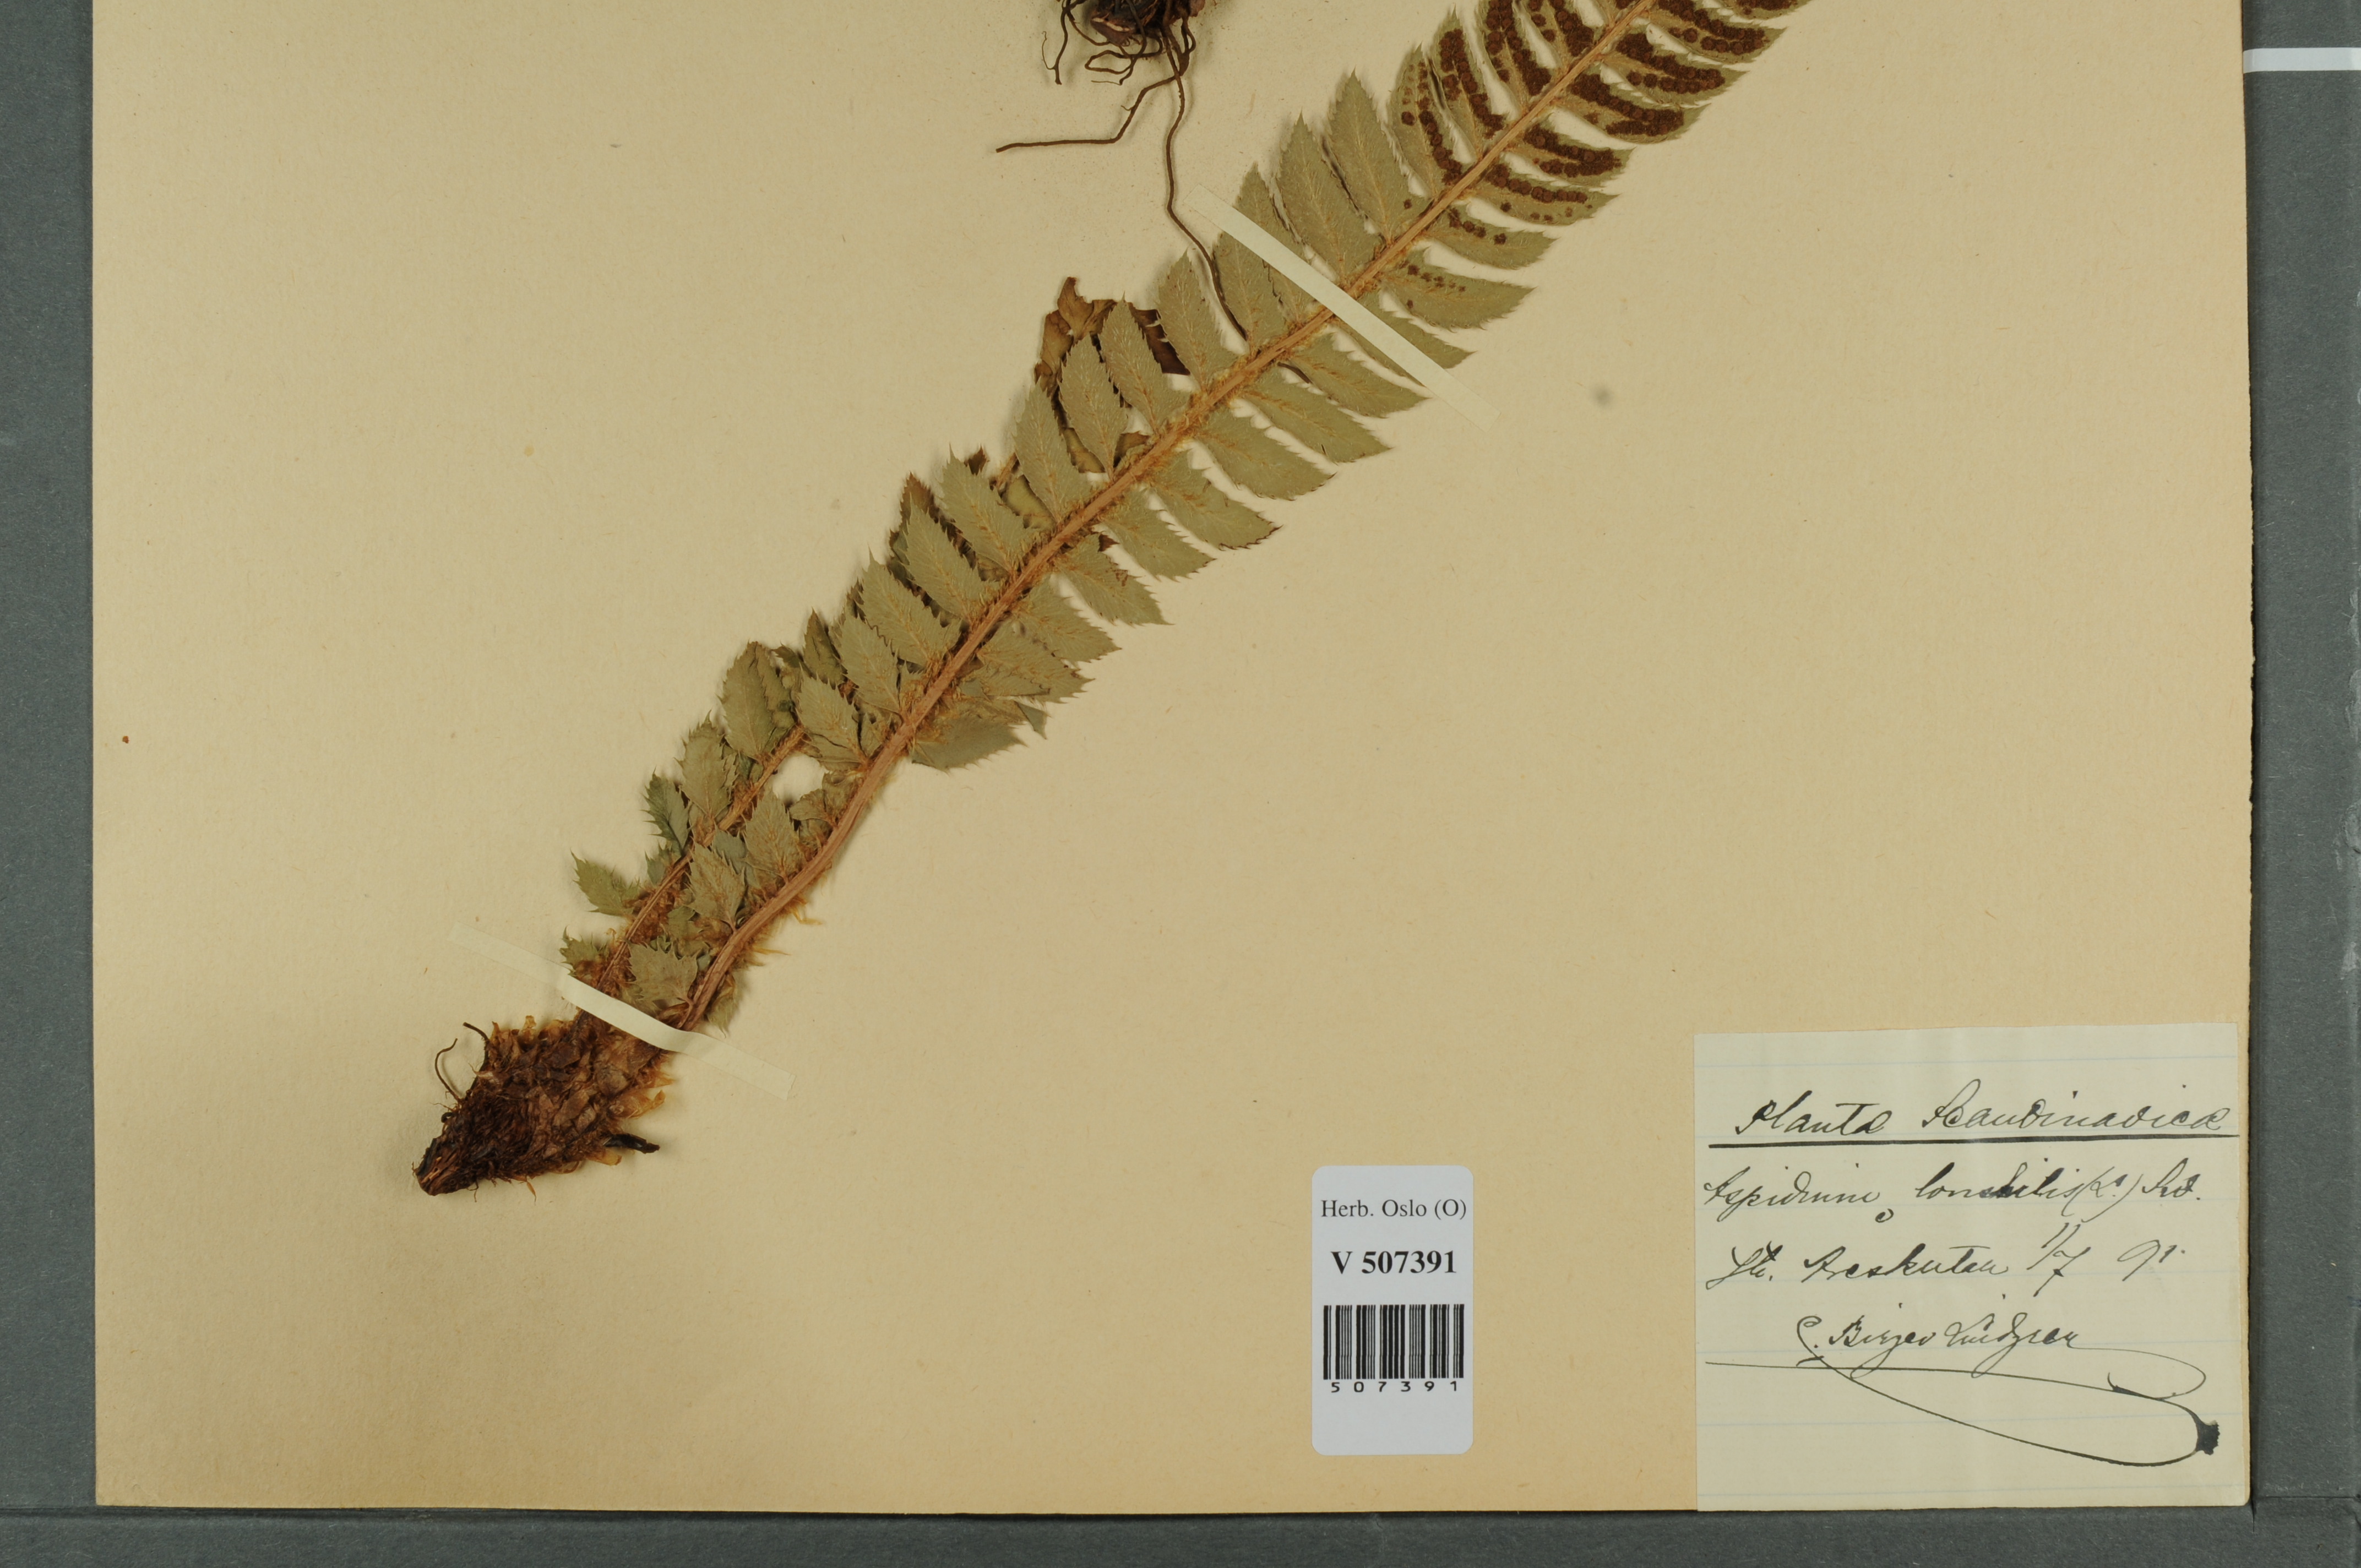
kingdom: Plantae
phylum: Tracheophyta
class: Polypodiopsida
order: Polypodiales
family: Dryopteridaceae
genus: Polystichum
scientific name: Polystichum lonchitis
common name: Holly fern
